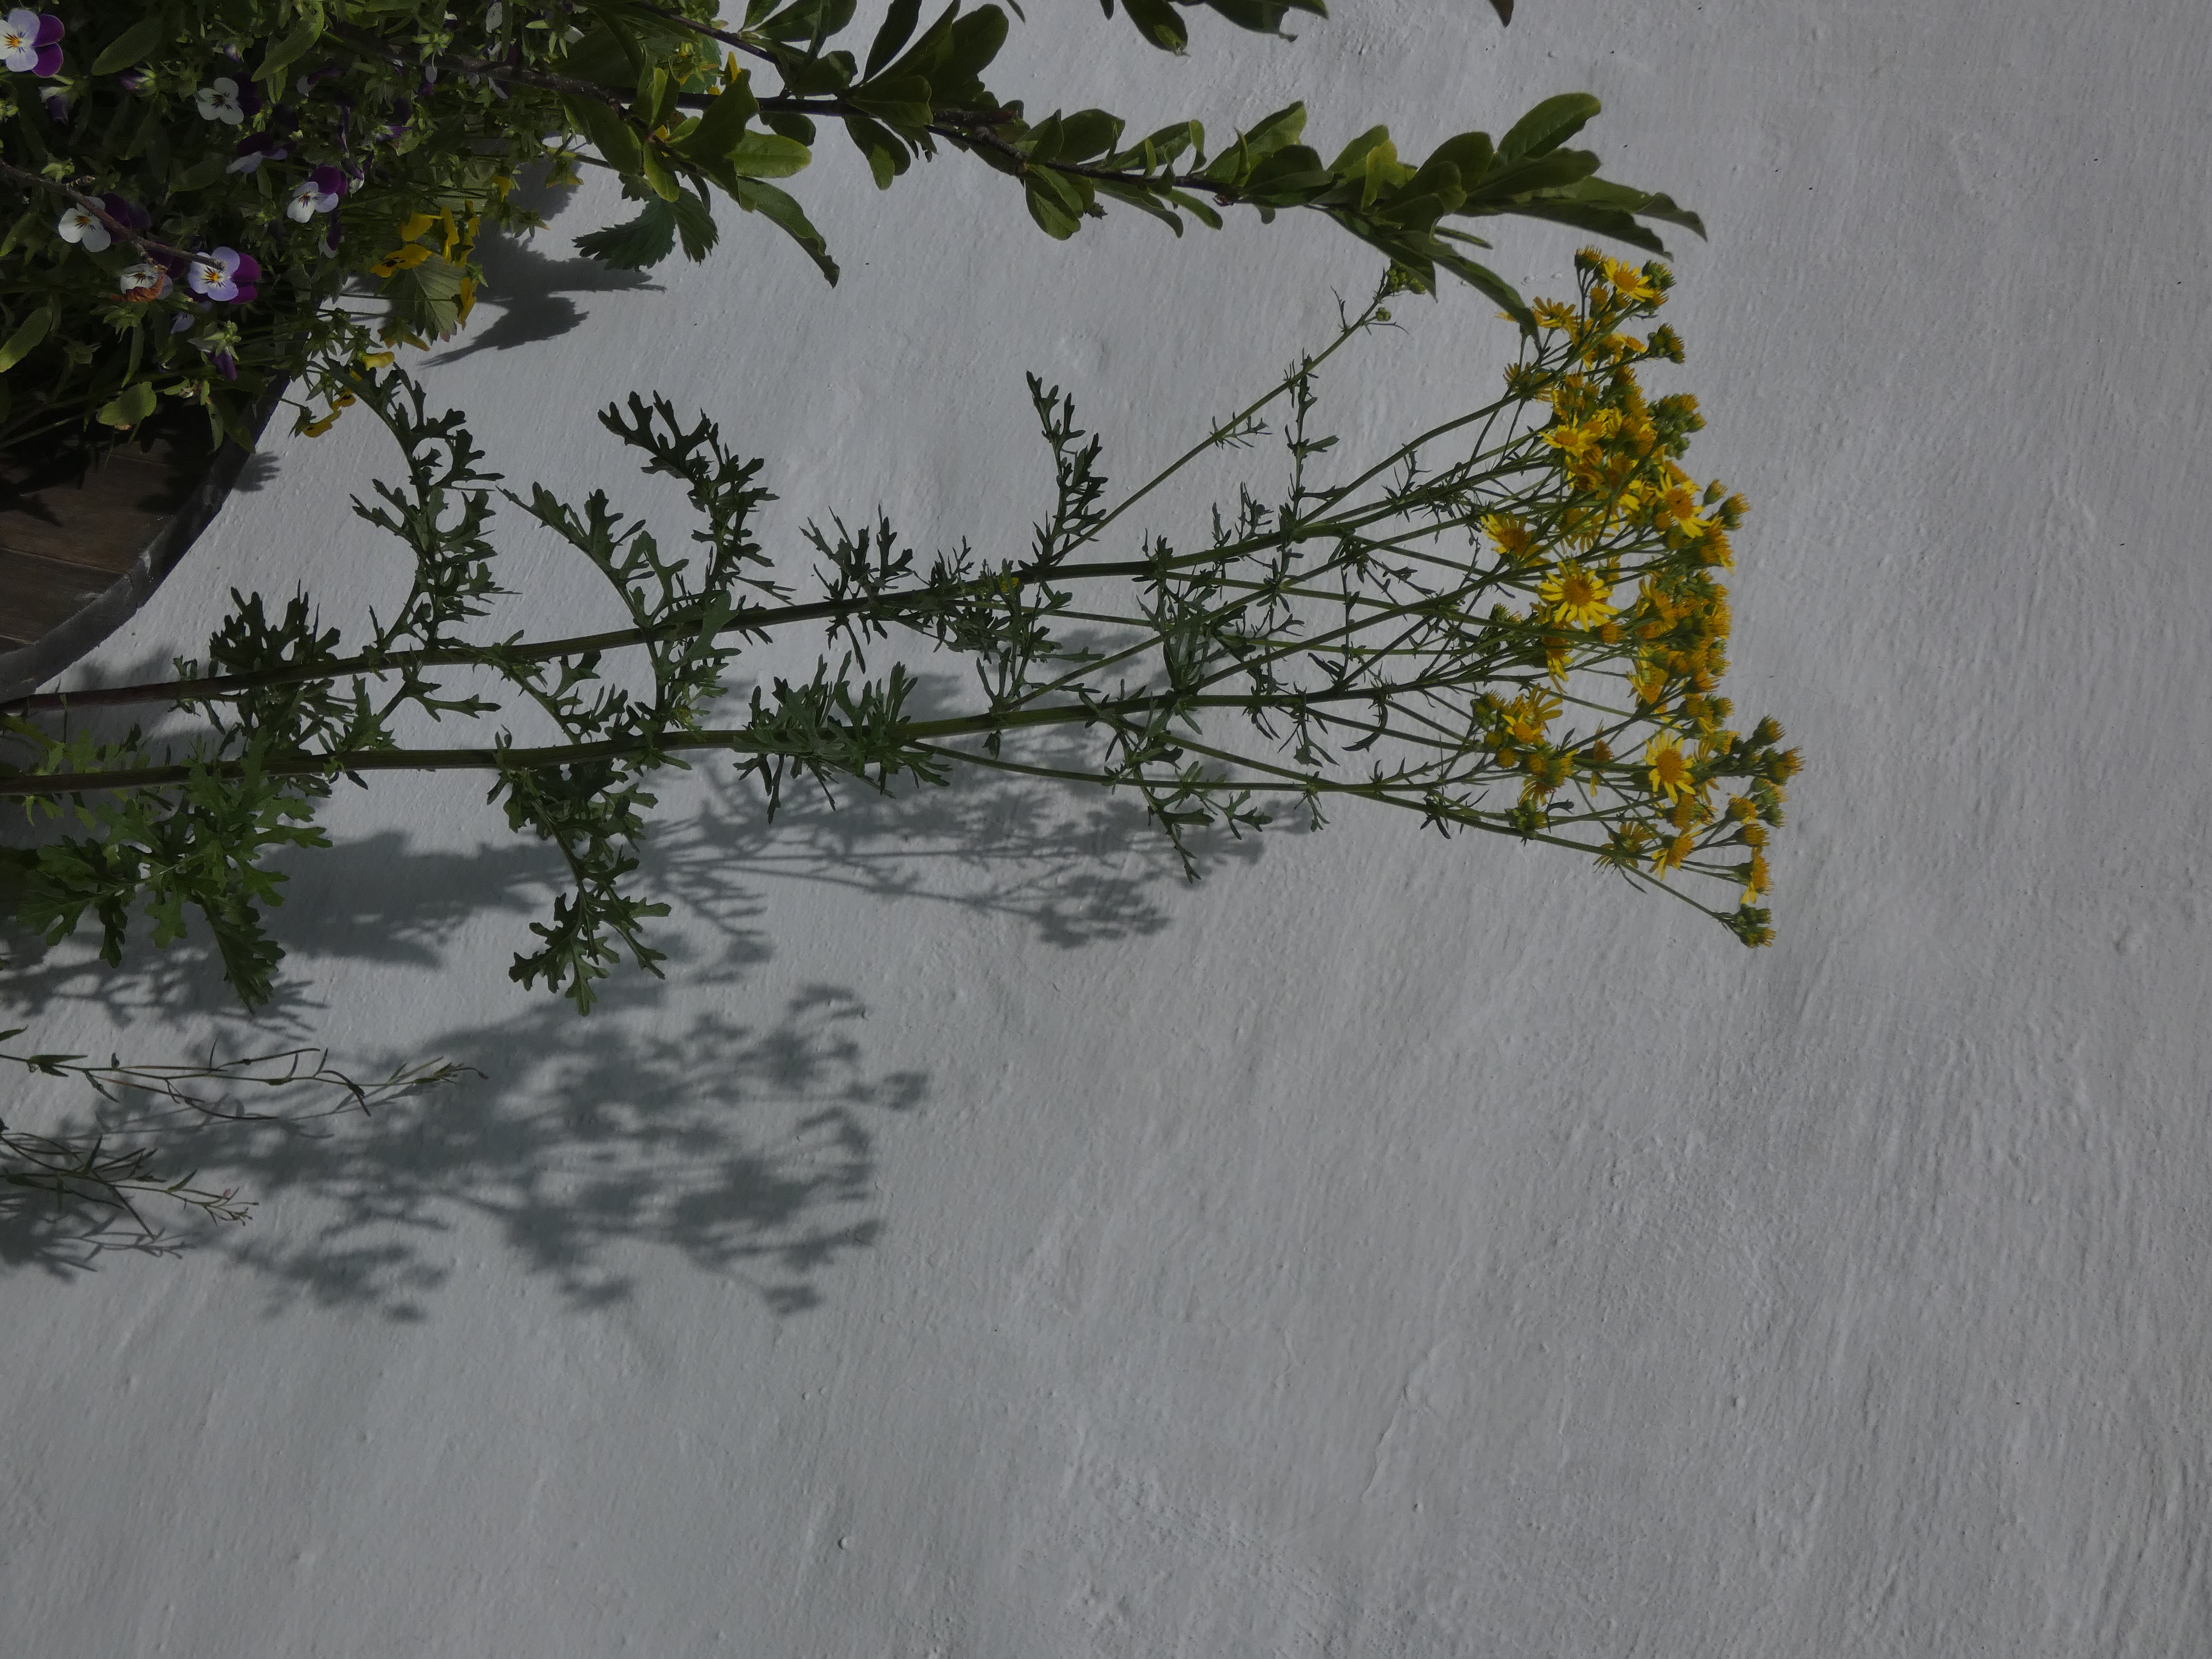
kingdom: Plantae
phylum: Tracheophyta
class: Magnoliopsida
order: Asterales
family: Asteraceae
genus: Jacobaea
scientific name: Jacobaea vulgaris
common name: Eng-brandbæger
